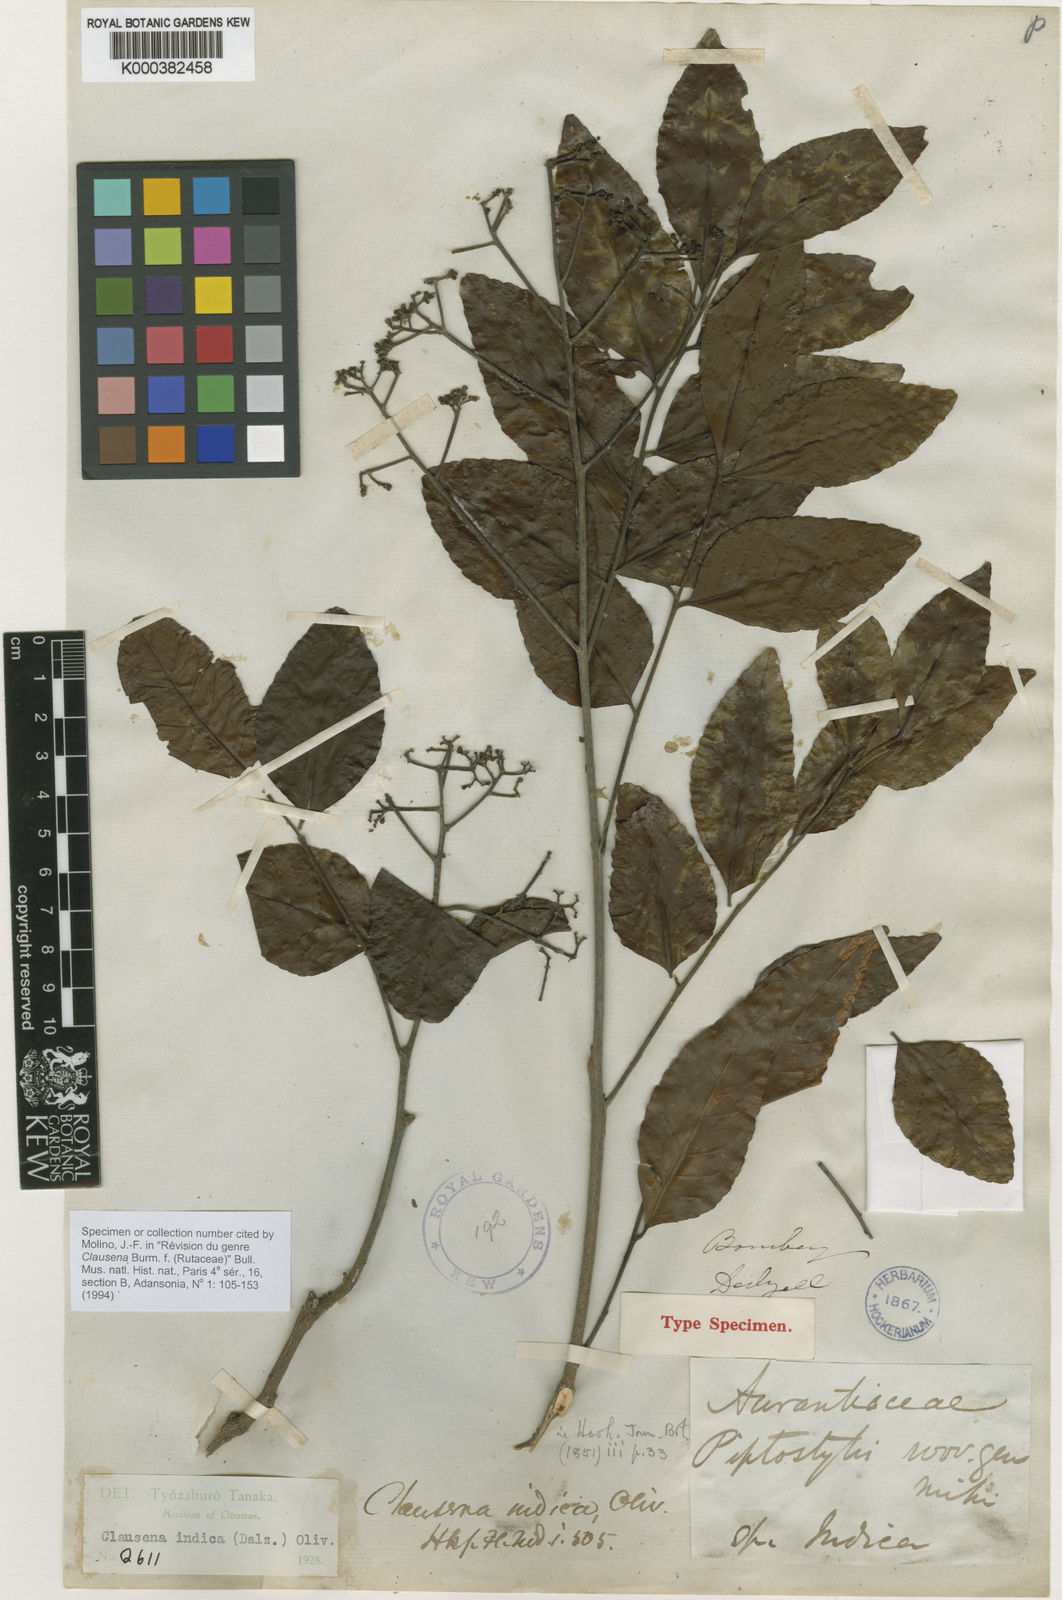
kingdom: Plantae
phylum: Tracheophyta
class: Magnoliopsida
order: Sapindales
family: Rutaceae
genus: Clausena
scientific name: Clausena indica
